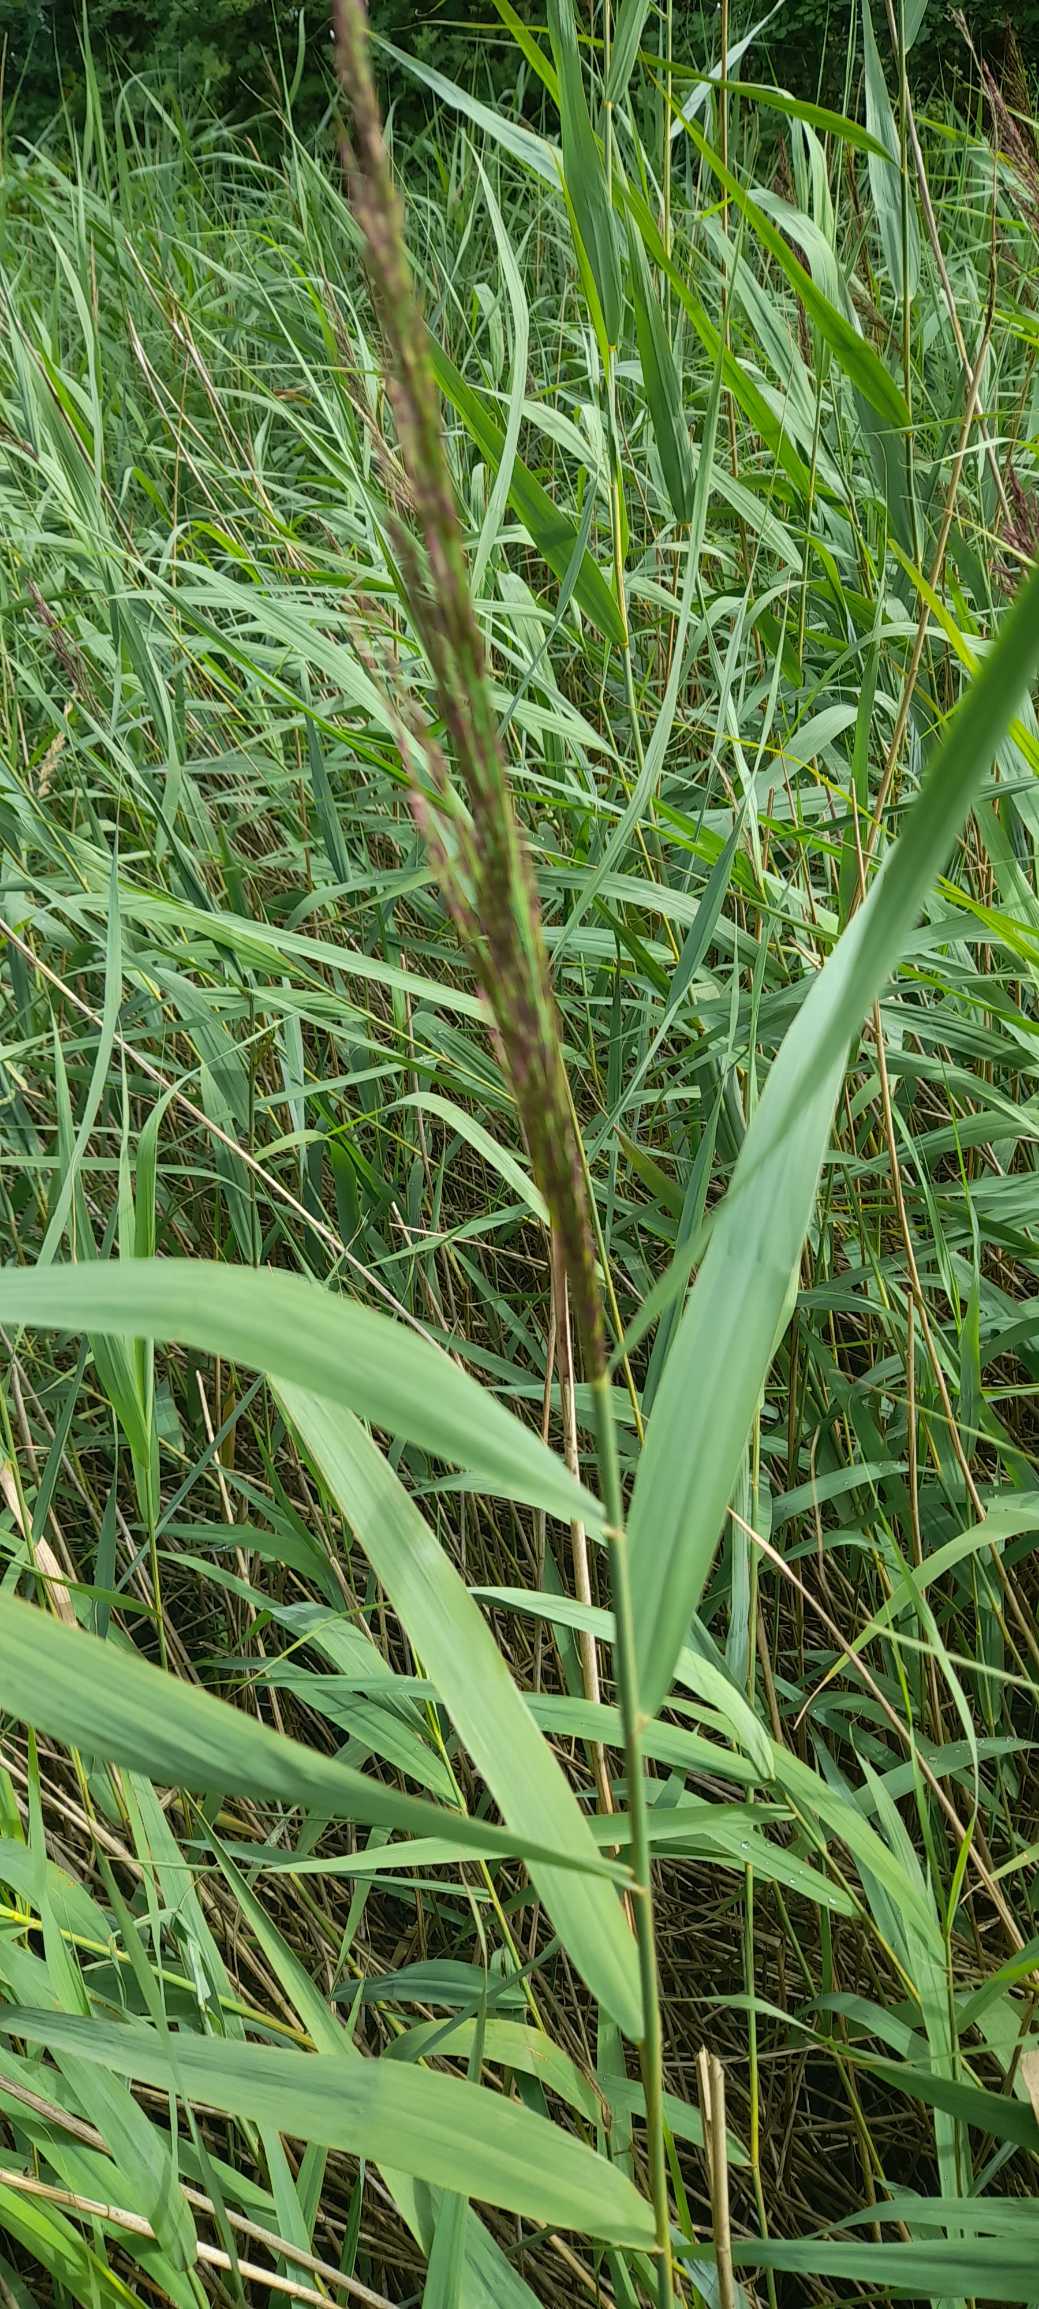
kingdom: Plantae
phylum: Tracheophyta
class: Liliopsida
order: Poales
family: Poaceae
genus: Phragmites
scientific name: Phragmites australis
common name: Tagrør
